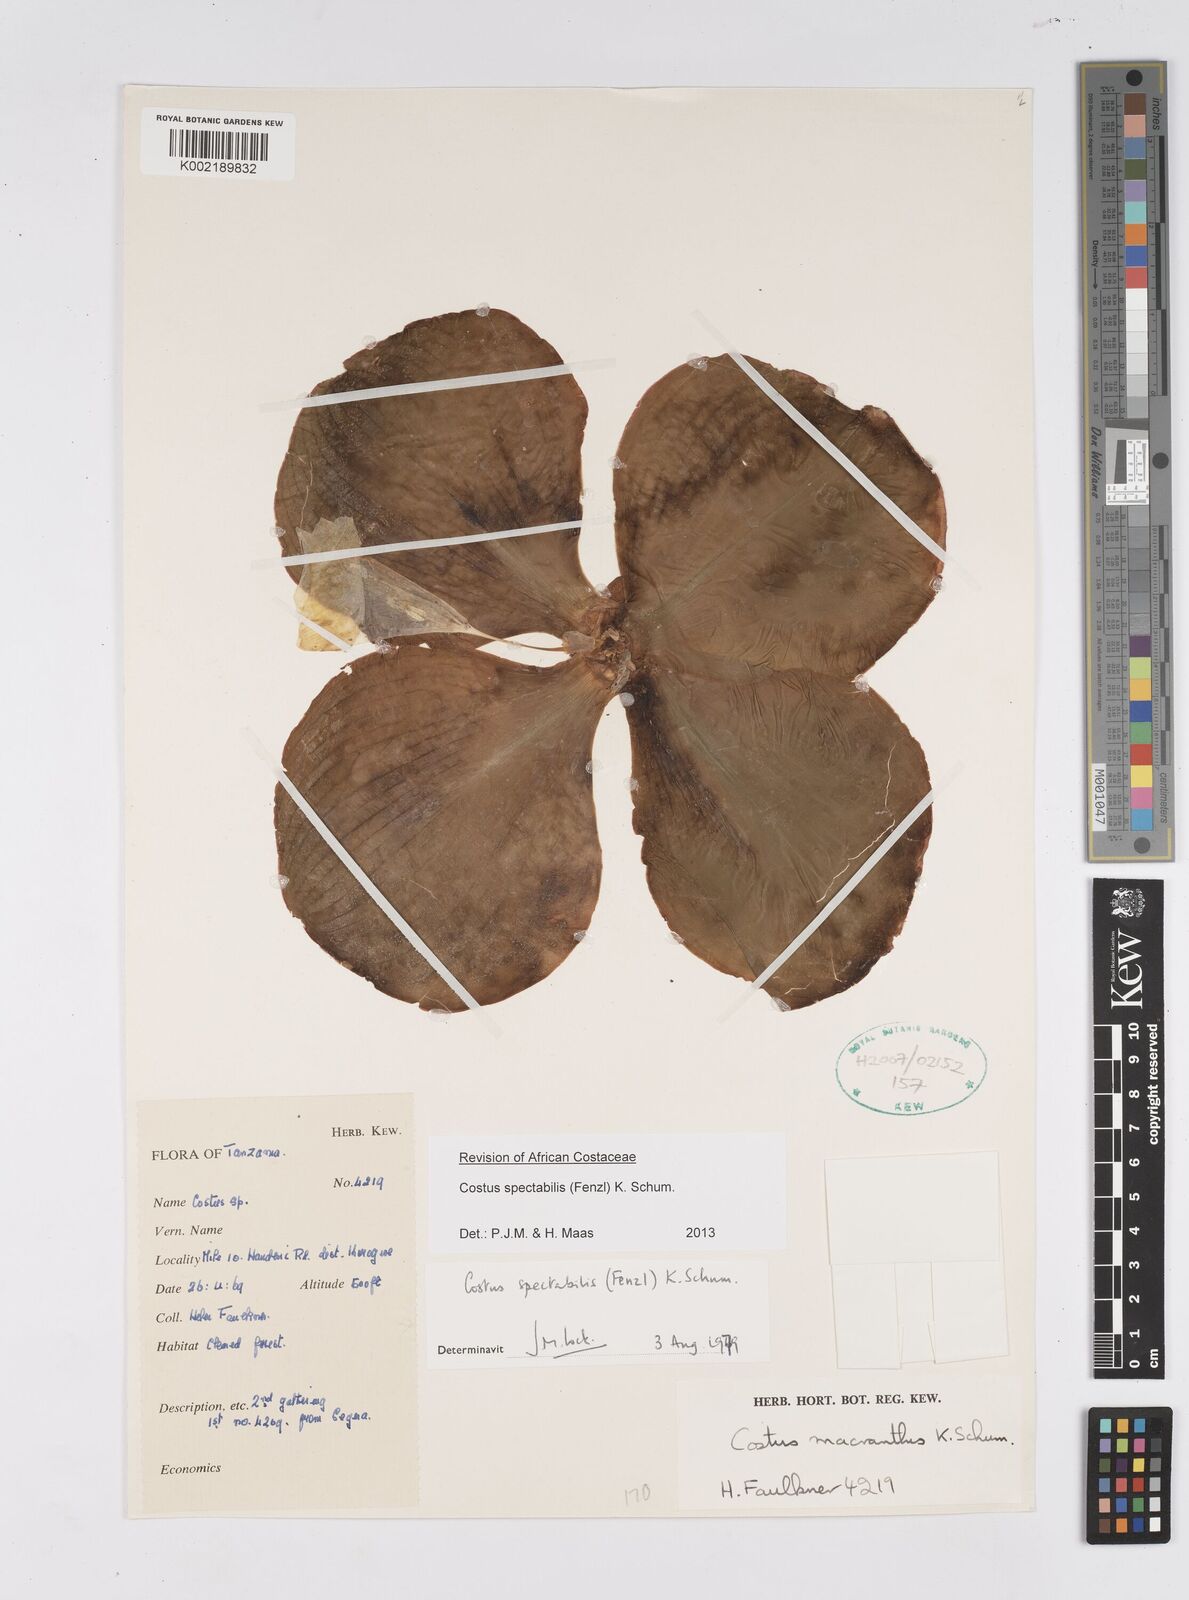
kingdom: Plantae
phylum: Tracheophyta
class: Liliopsida
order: Zingiberales
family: Costaceae
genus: Costus
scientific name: Costus spectabilis
